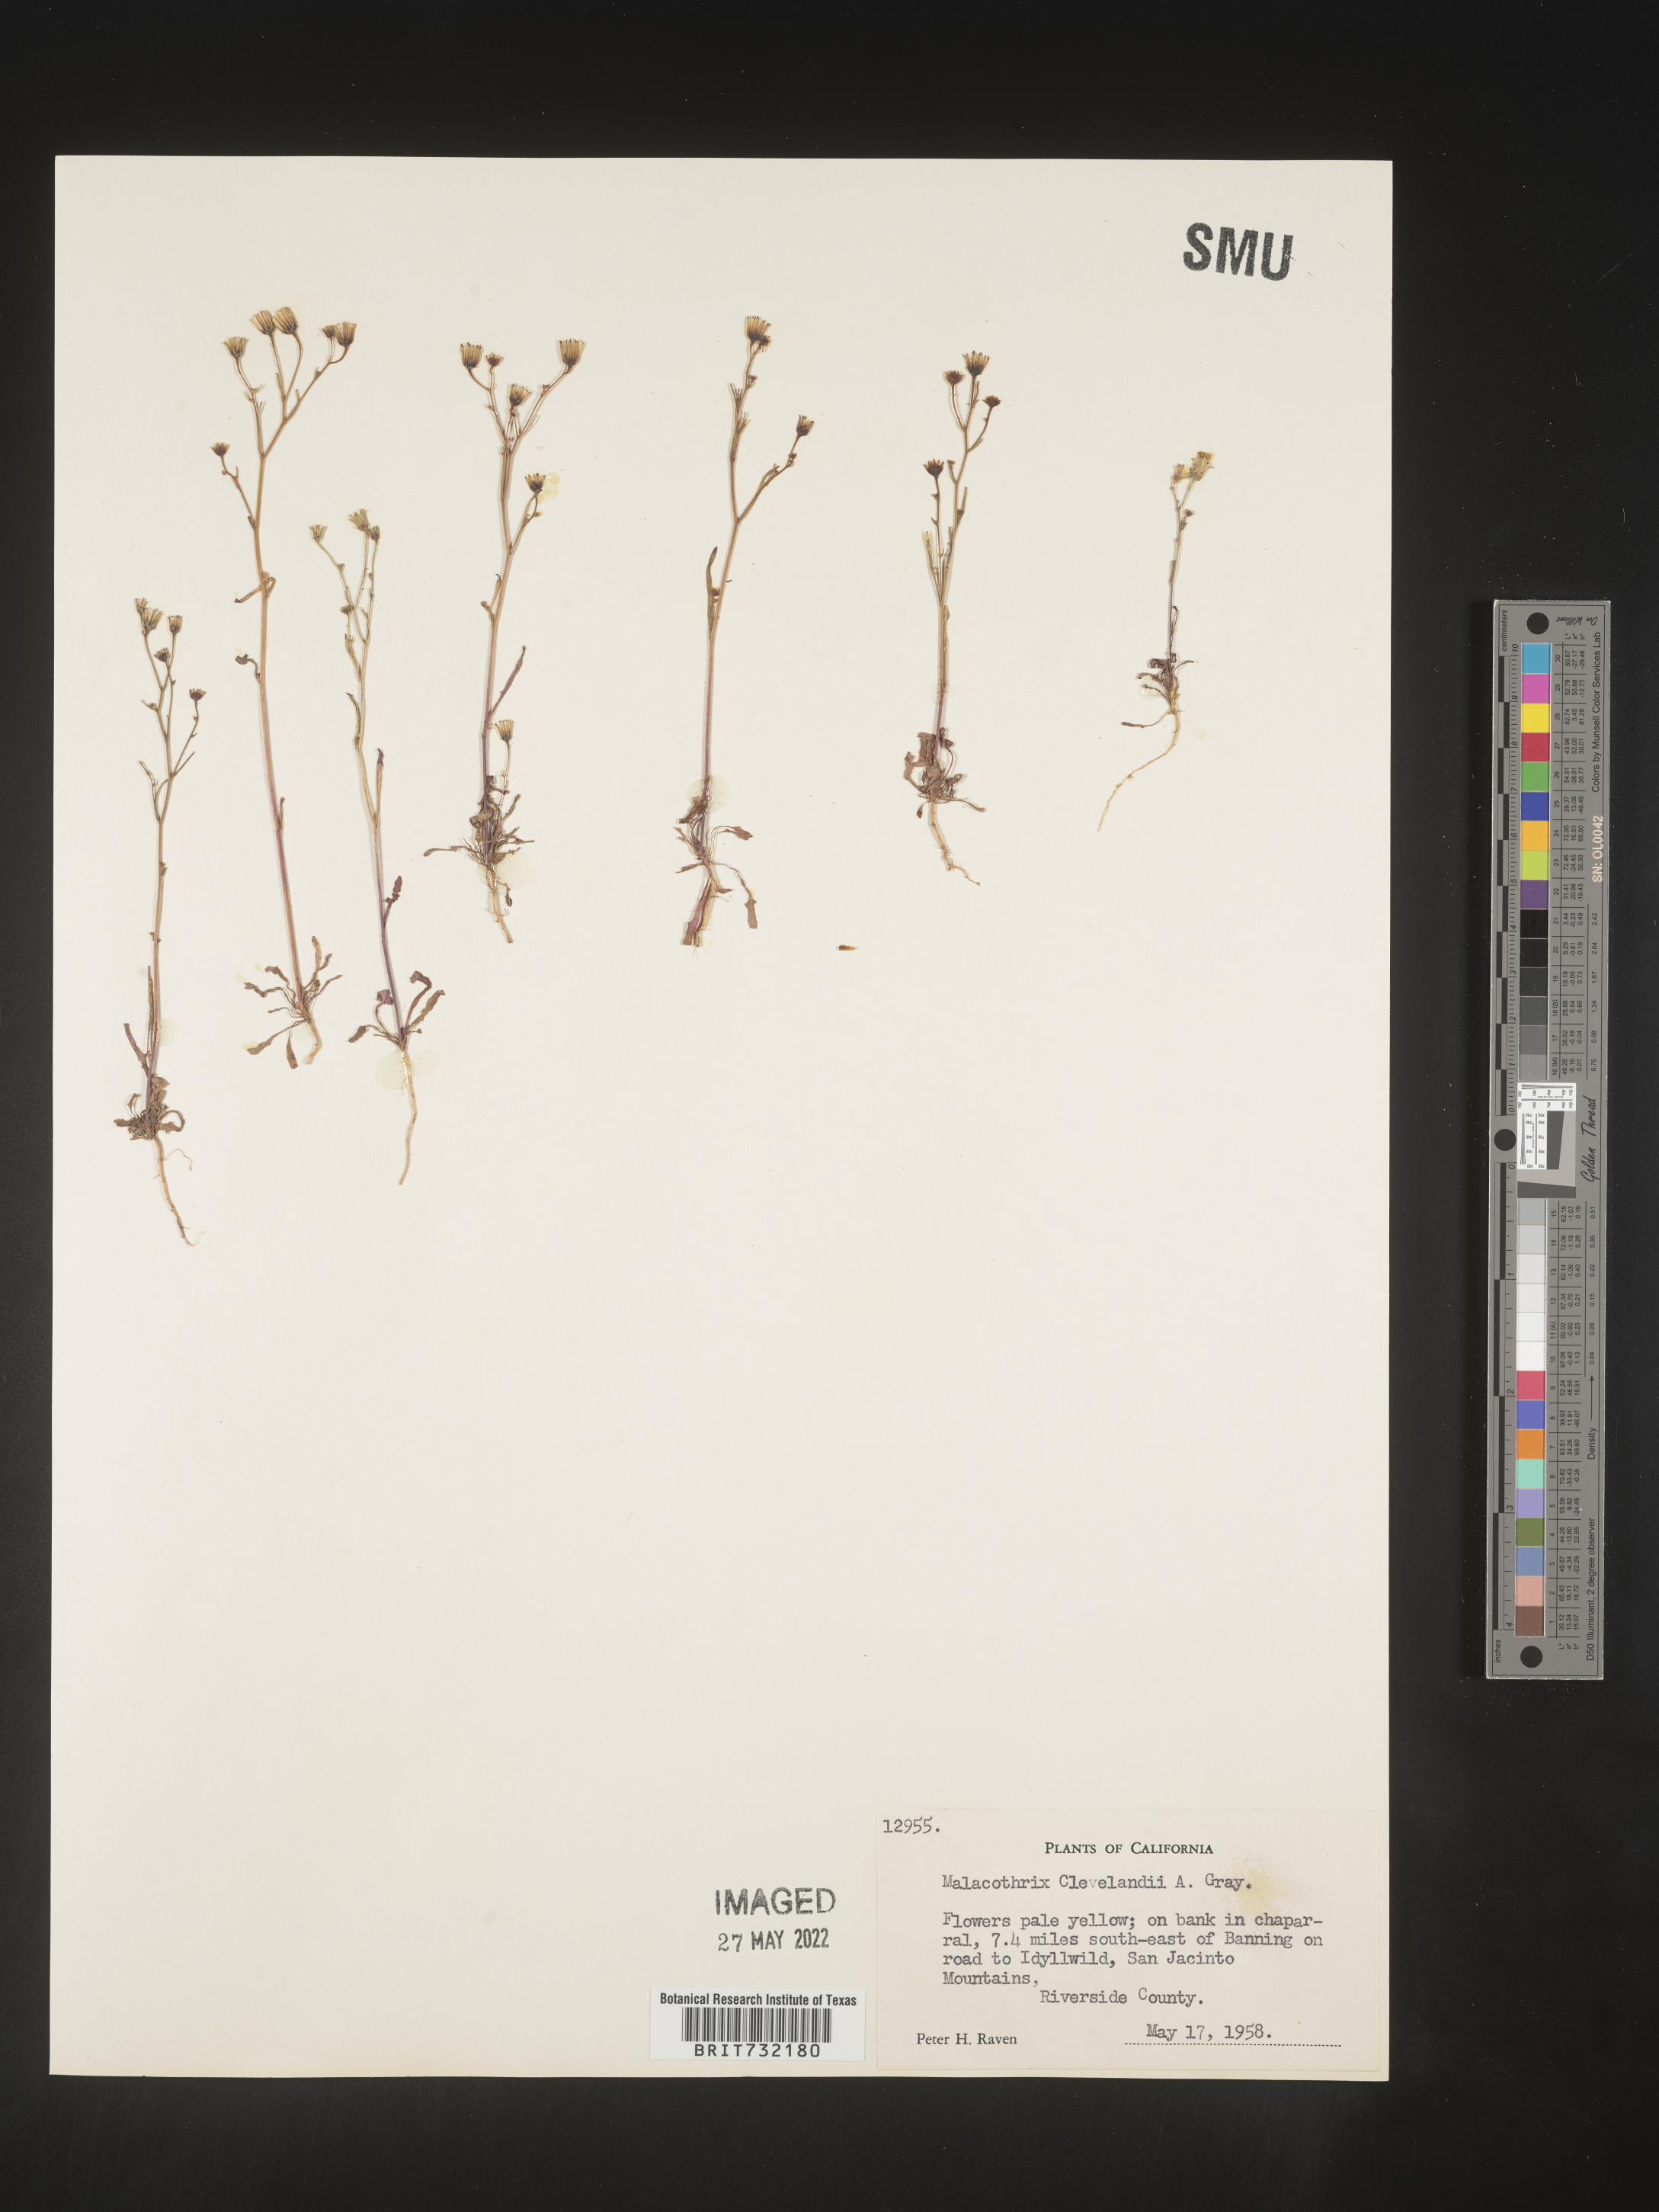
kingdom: Plantae
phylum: Tracheophyta
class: Magnoliopsida
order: Asterales
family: Asteraceae
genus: Malacothrix
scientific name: Malacothrix
